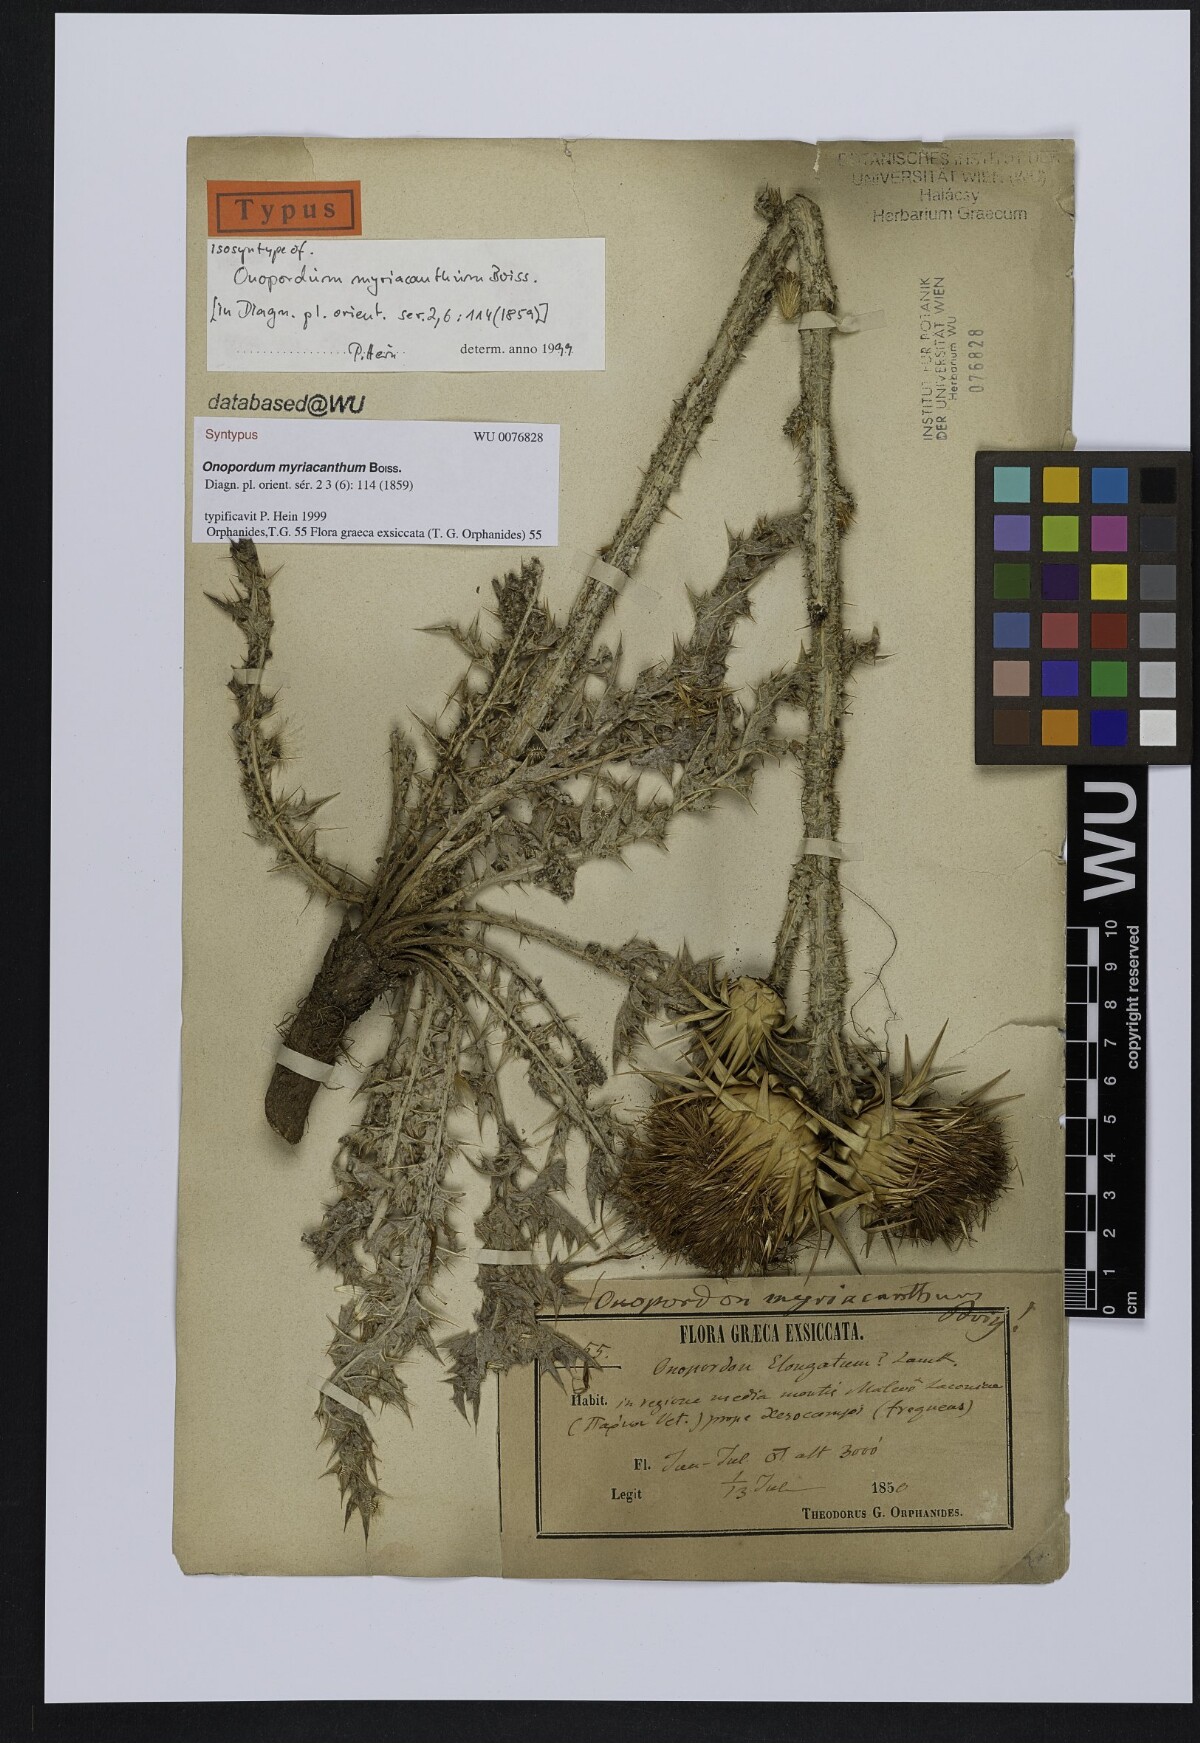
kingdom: Plantae
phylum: Tracheophyta
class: Magnoliopsida
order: Asterales
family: Asteraceae
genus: Onopordum
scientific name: Onopordum myriacanthum
